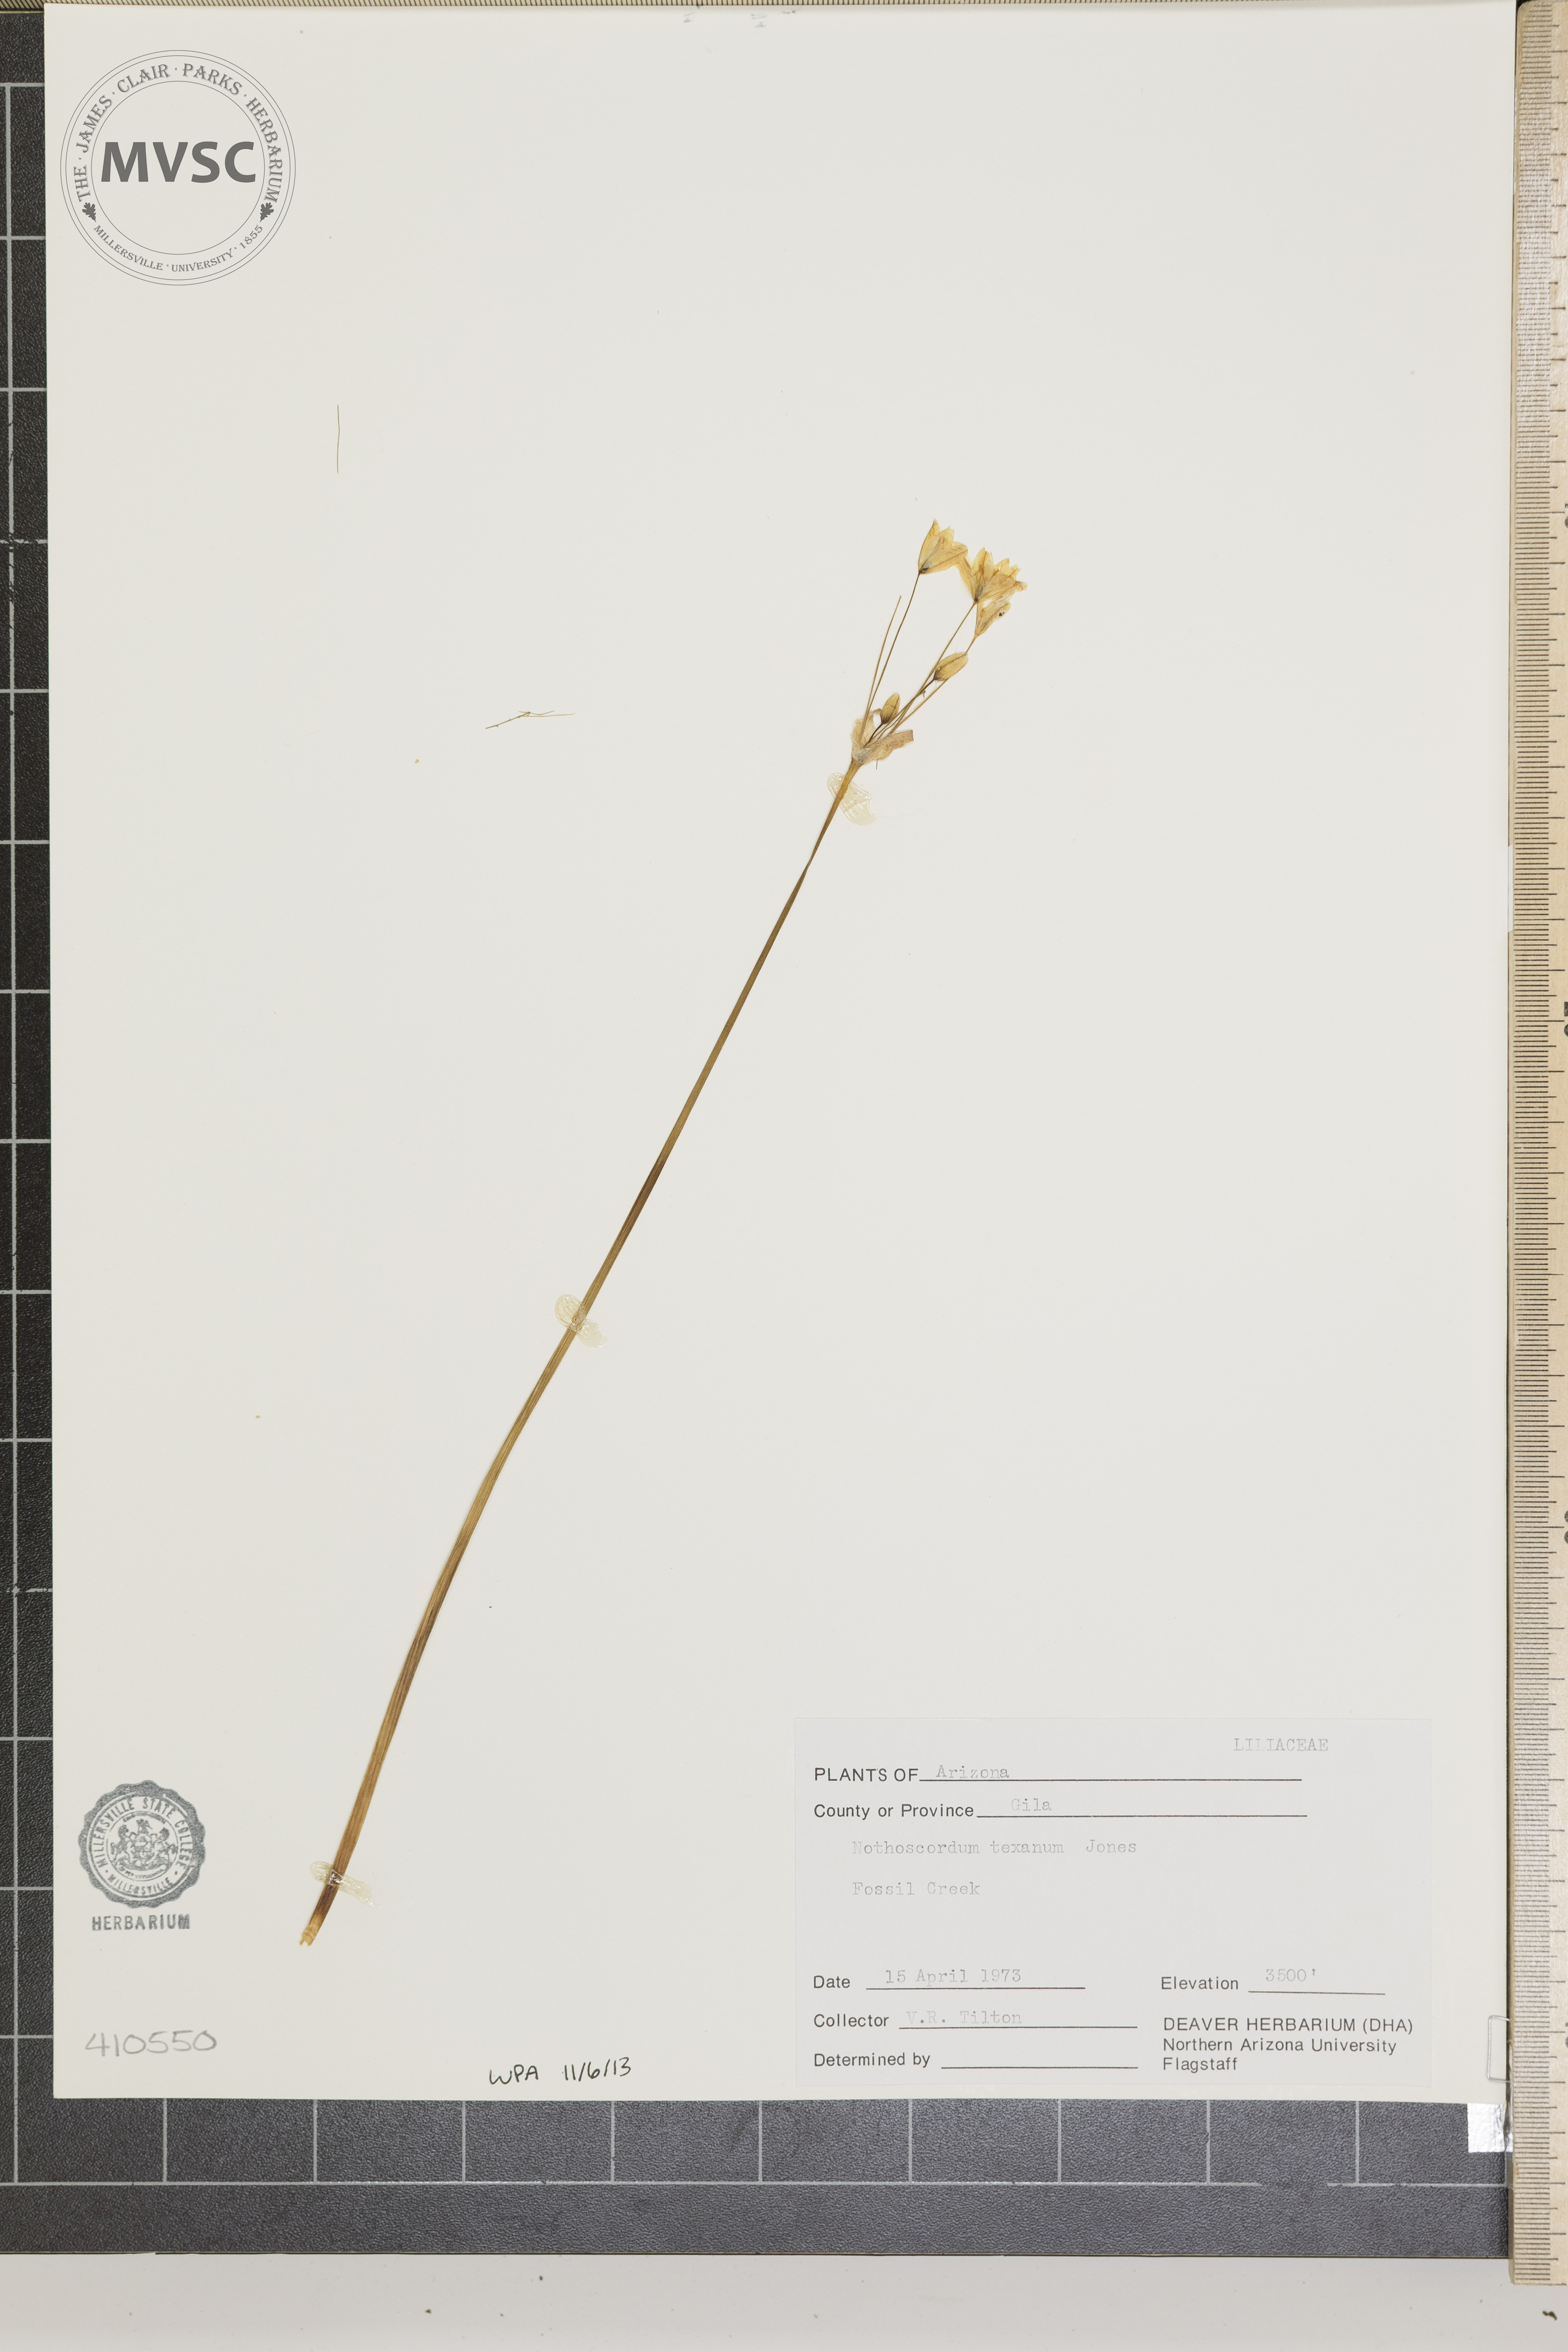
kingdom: Plantae
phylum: Tracheophyta
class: Liliopsida
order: Asparagales
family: Amaryllidaceae
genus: Nothoscordum
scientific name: Nothoscordum bivalve
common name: Crow-poison
